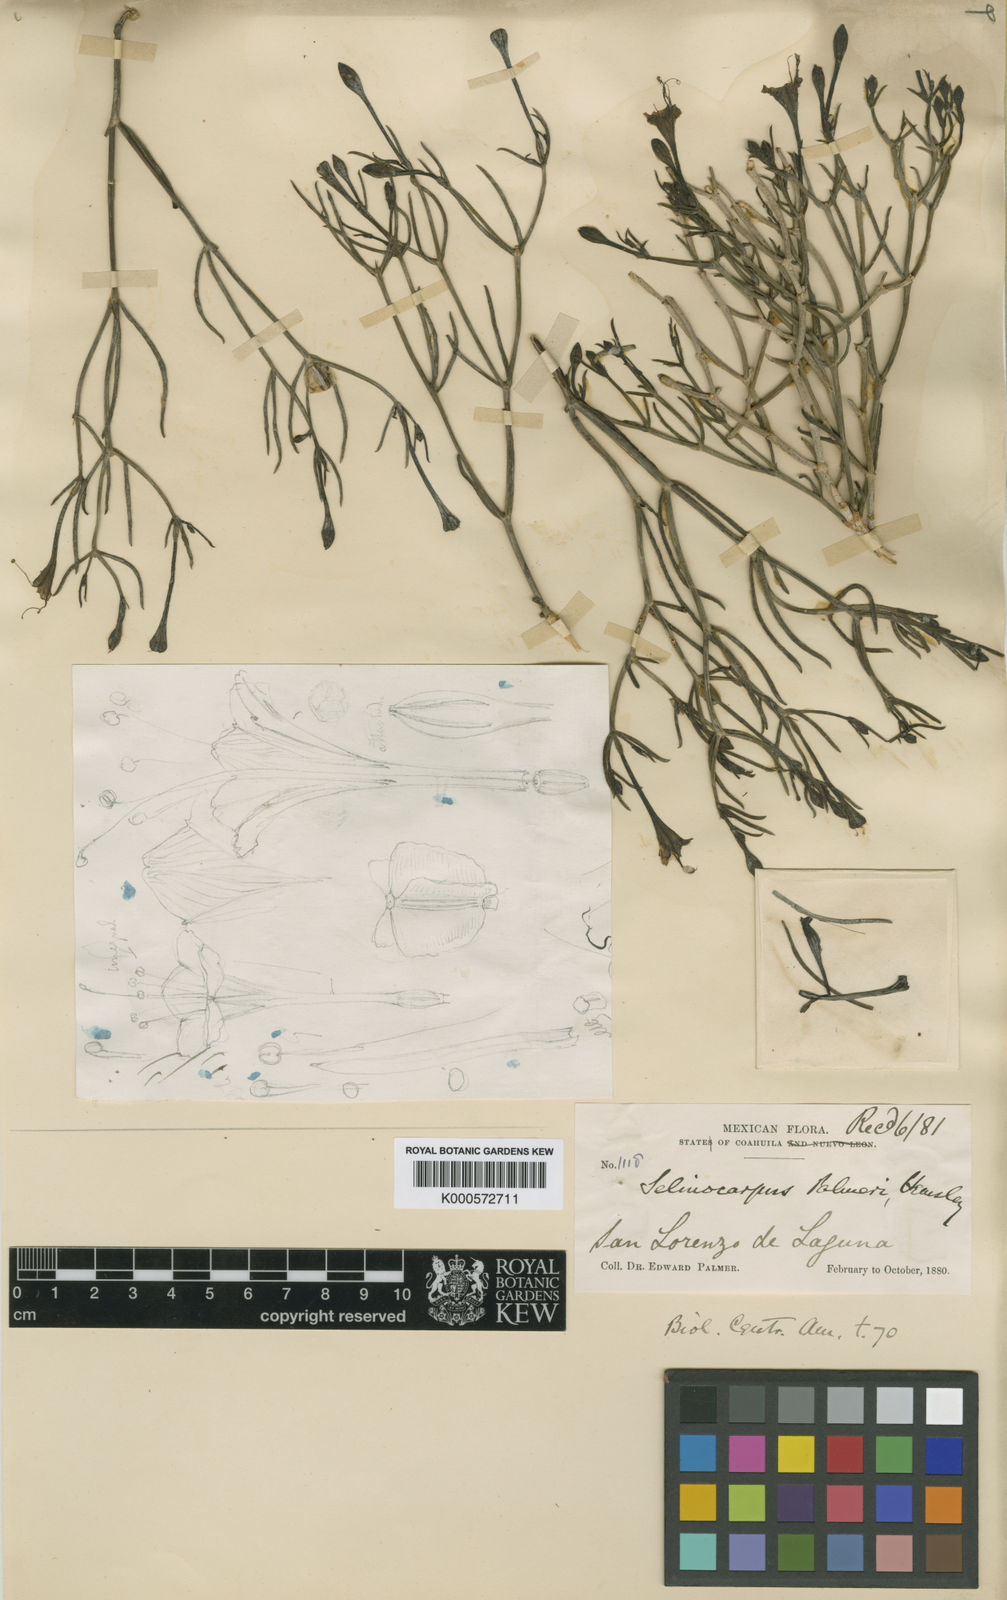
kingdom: Plantae
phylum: Tracheophyta
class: Magnoliopsida
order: Caryophyllales
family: Nyctaginaceae
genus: Acleisanthes
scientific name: Acleisanthes palmeri
